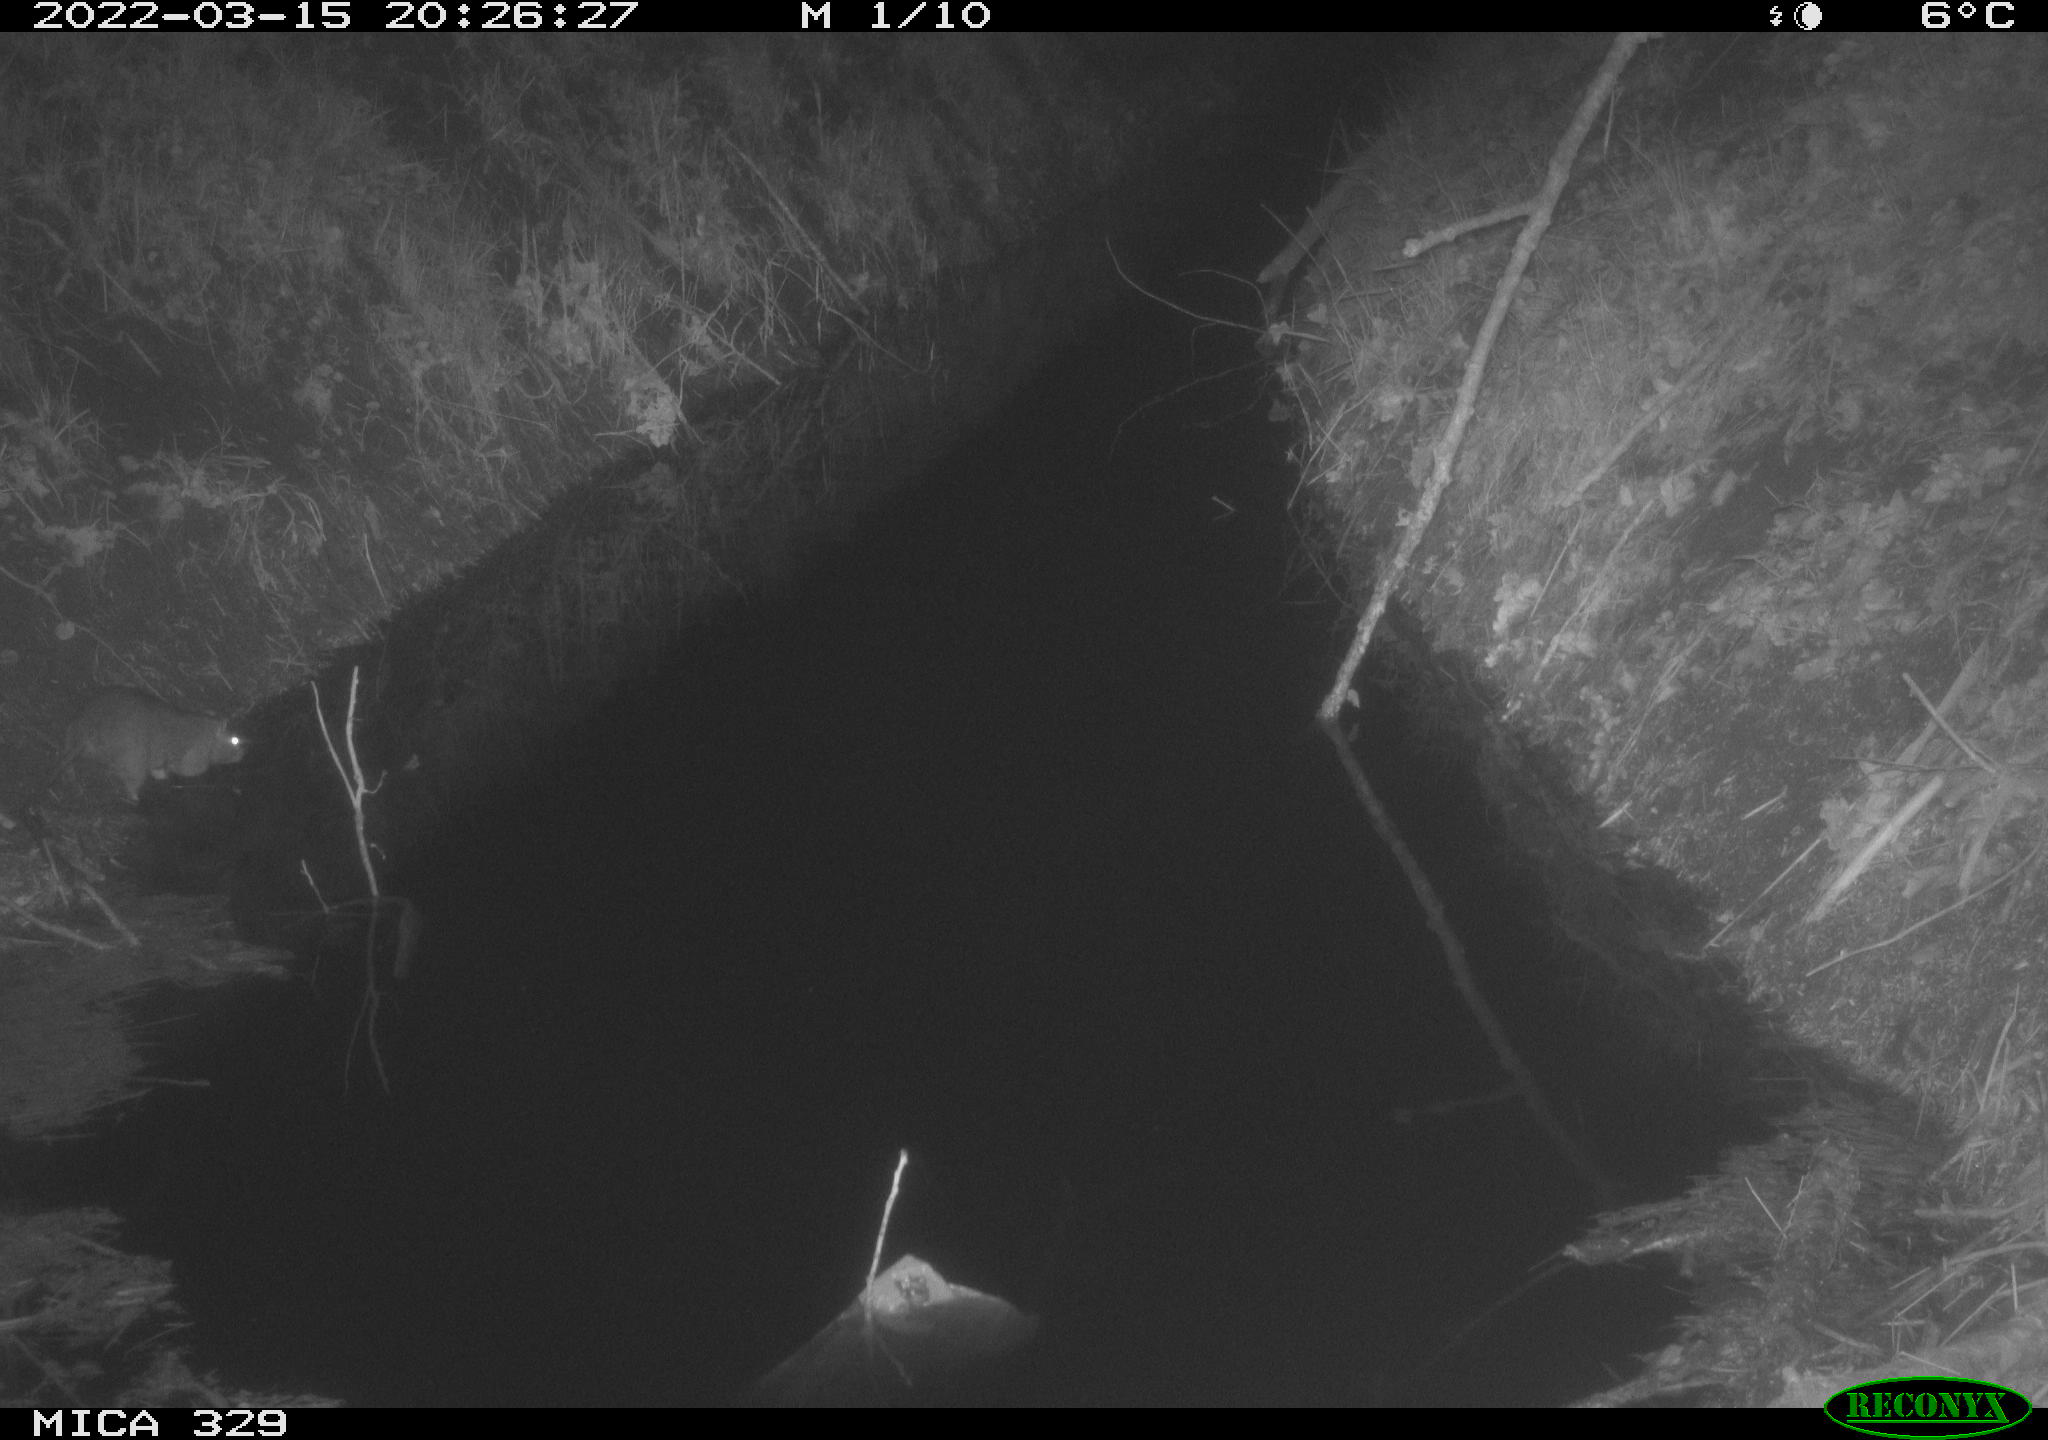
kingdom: Animalia
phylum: Chordata
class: Mammalia
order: Rodentia
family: Muridae
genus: Rattus
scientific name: Rattus norvegicus
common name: Brown rat
